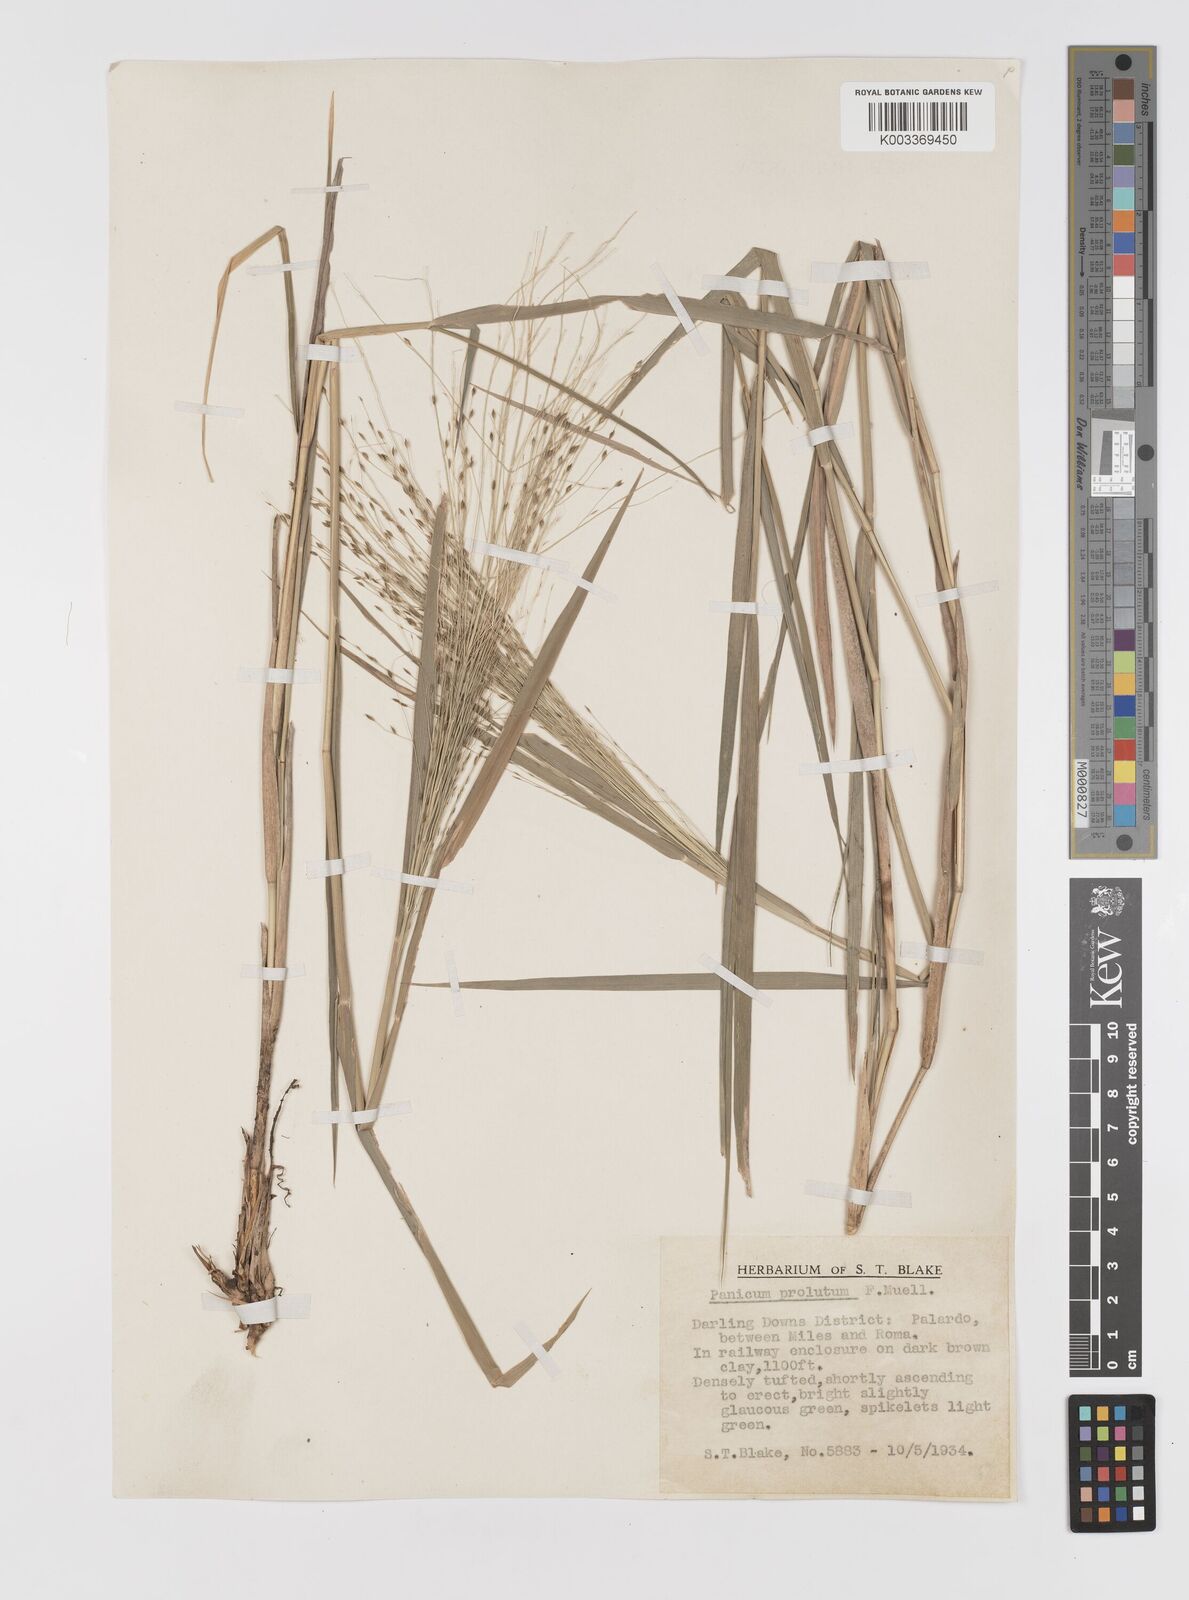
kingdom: Plantae
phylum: Tracheophyta
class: Liliopsida
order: Poales
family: Poaceae
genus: Walwhalleya
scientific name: Walwhalleya proluta
